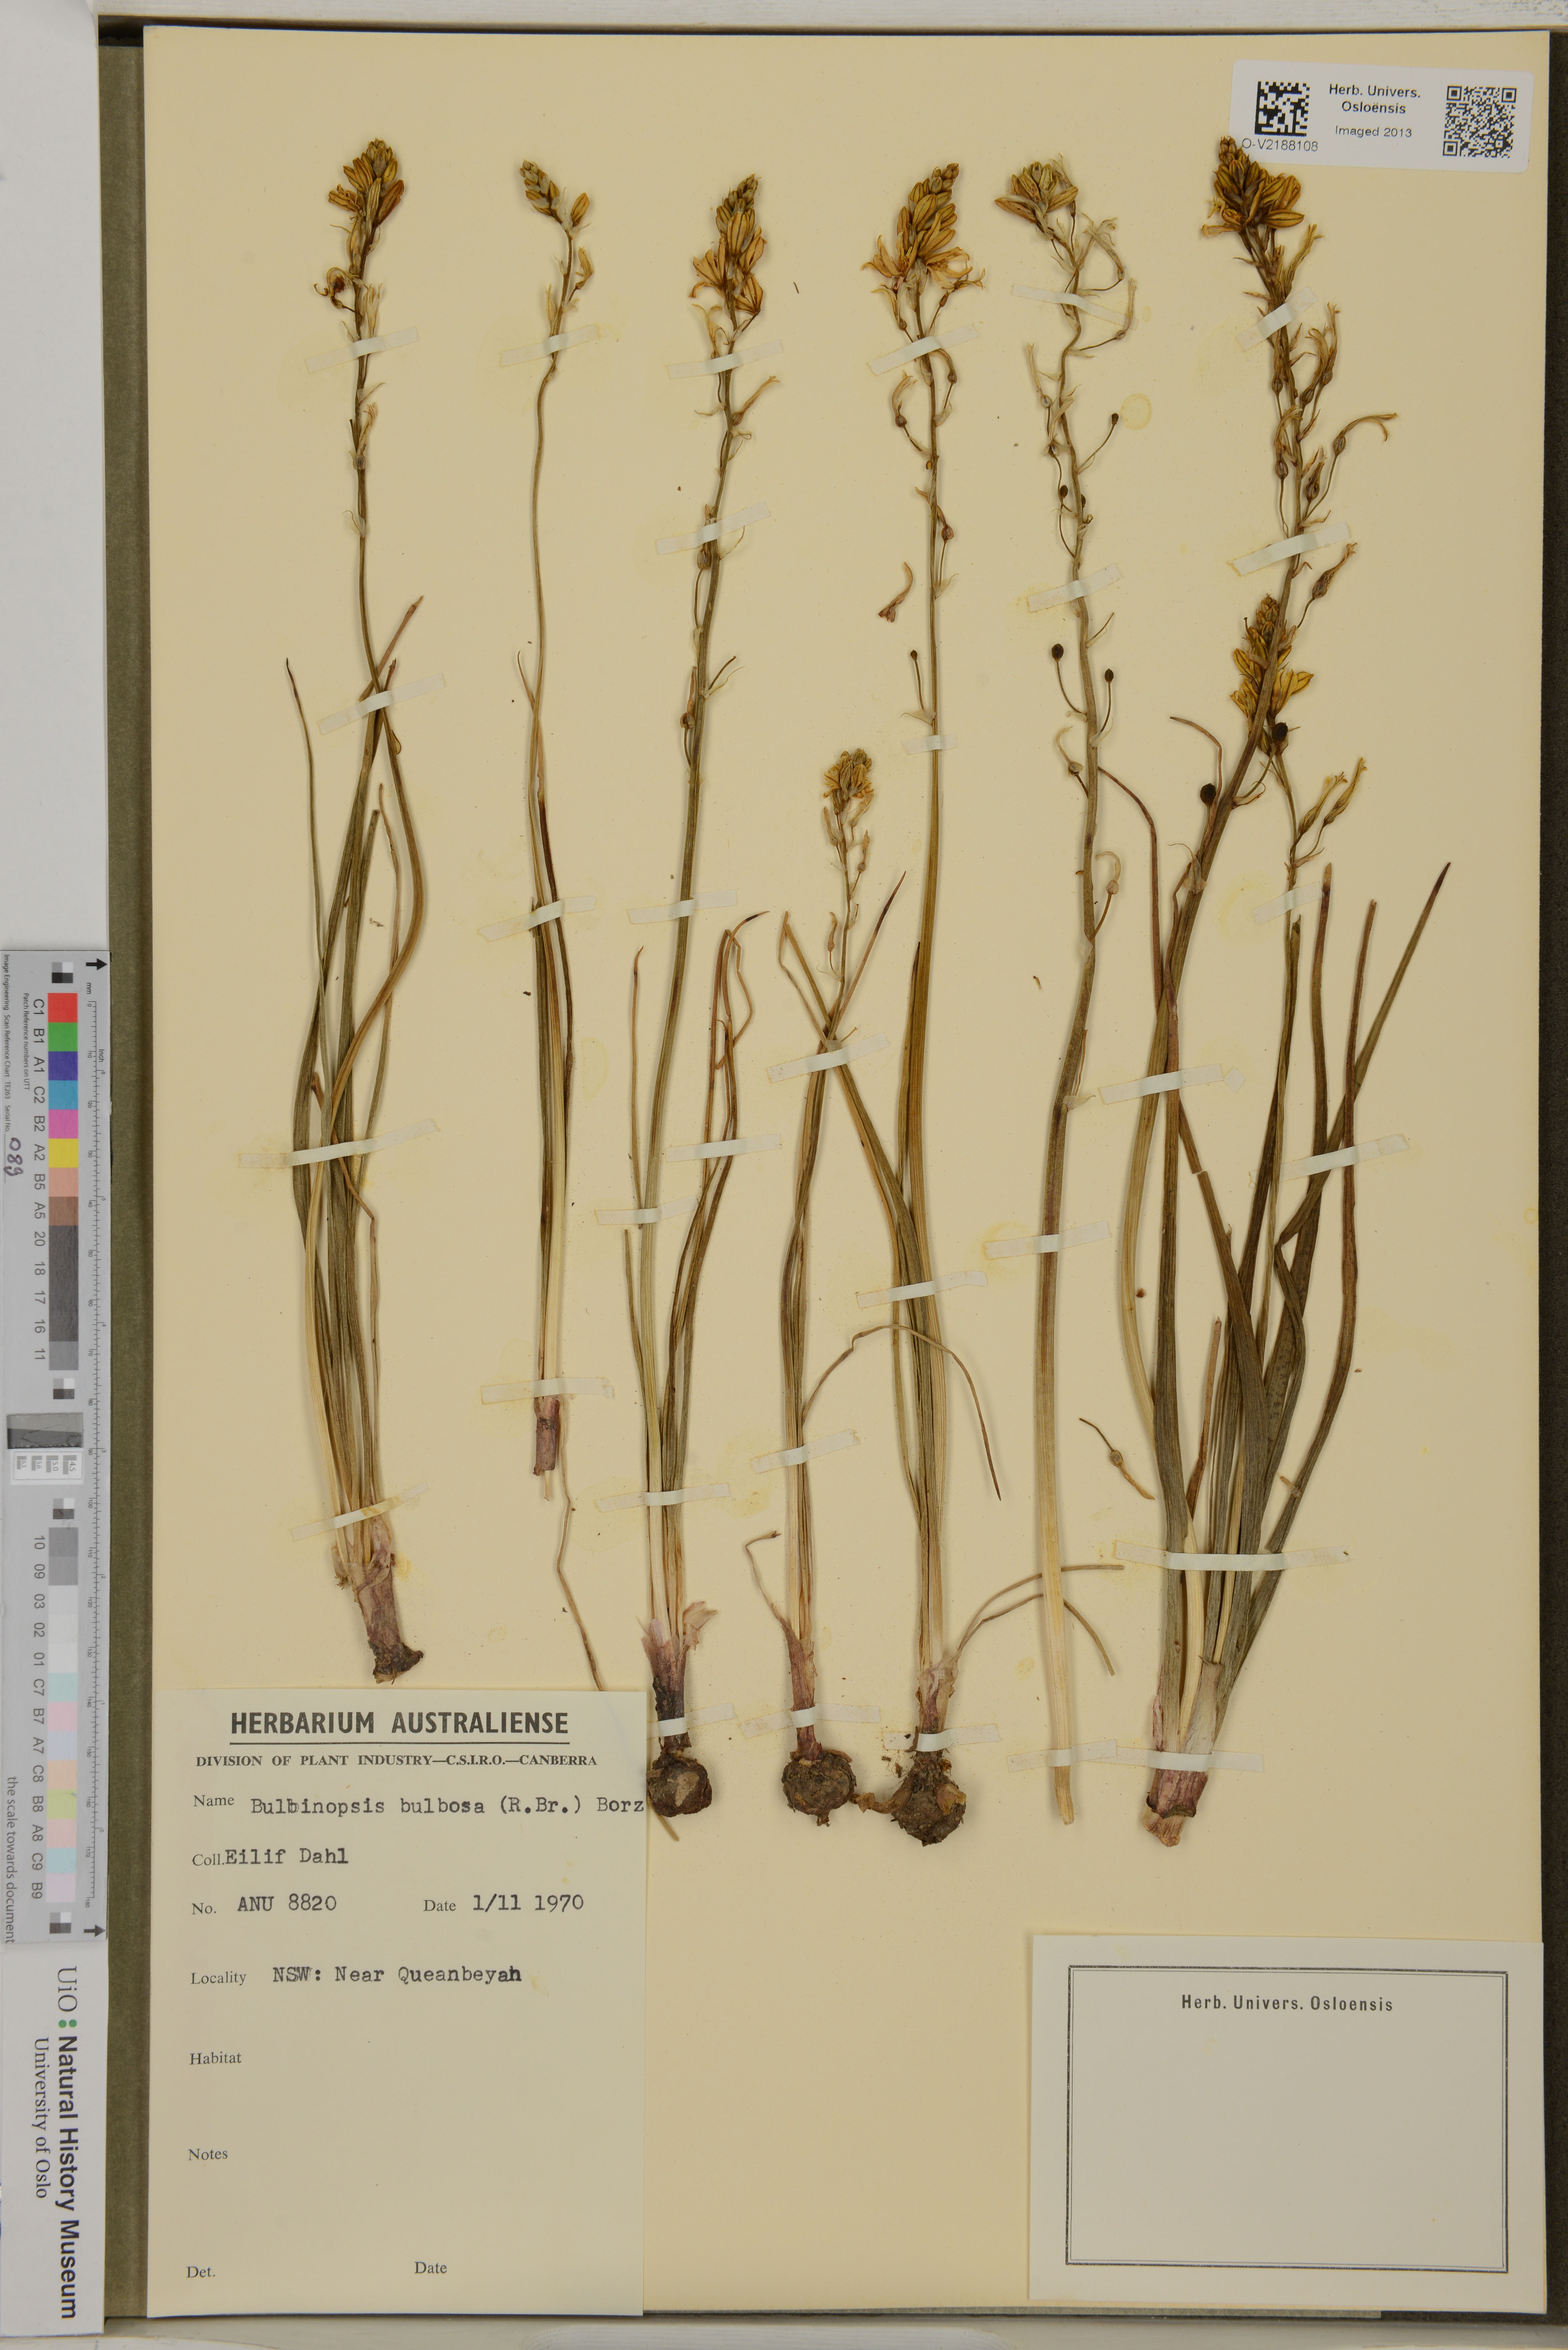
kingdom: Plantae
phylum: Tracheophyta
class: Liliopsida
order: Asparagales
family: Asphodelaceae
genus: Bulbine
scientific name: Bulbine bulbosa
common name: Golden-lily
